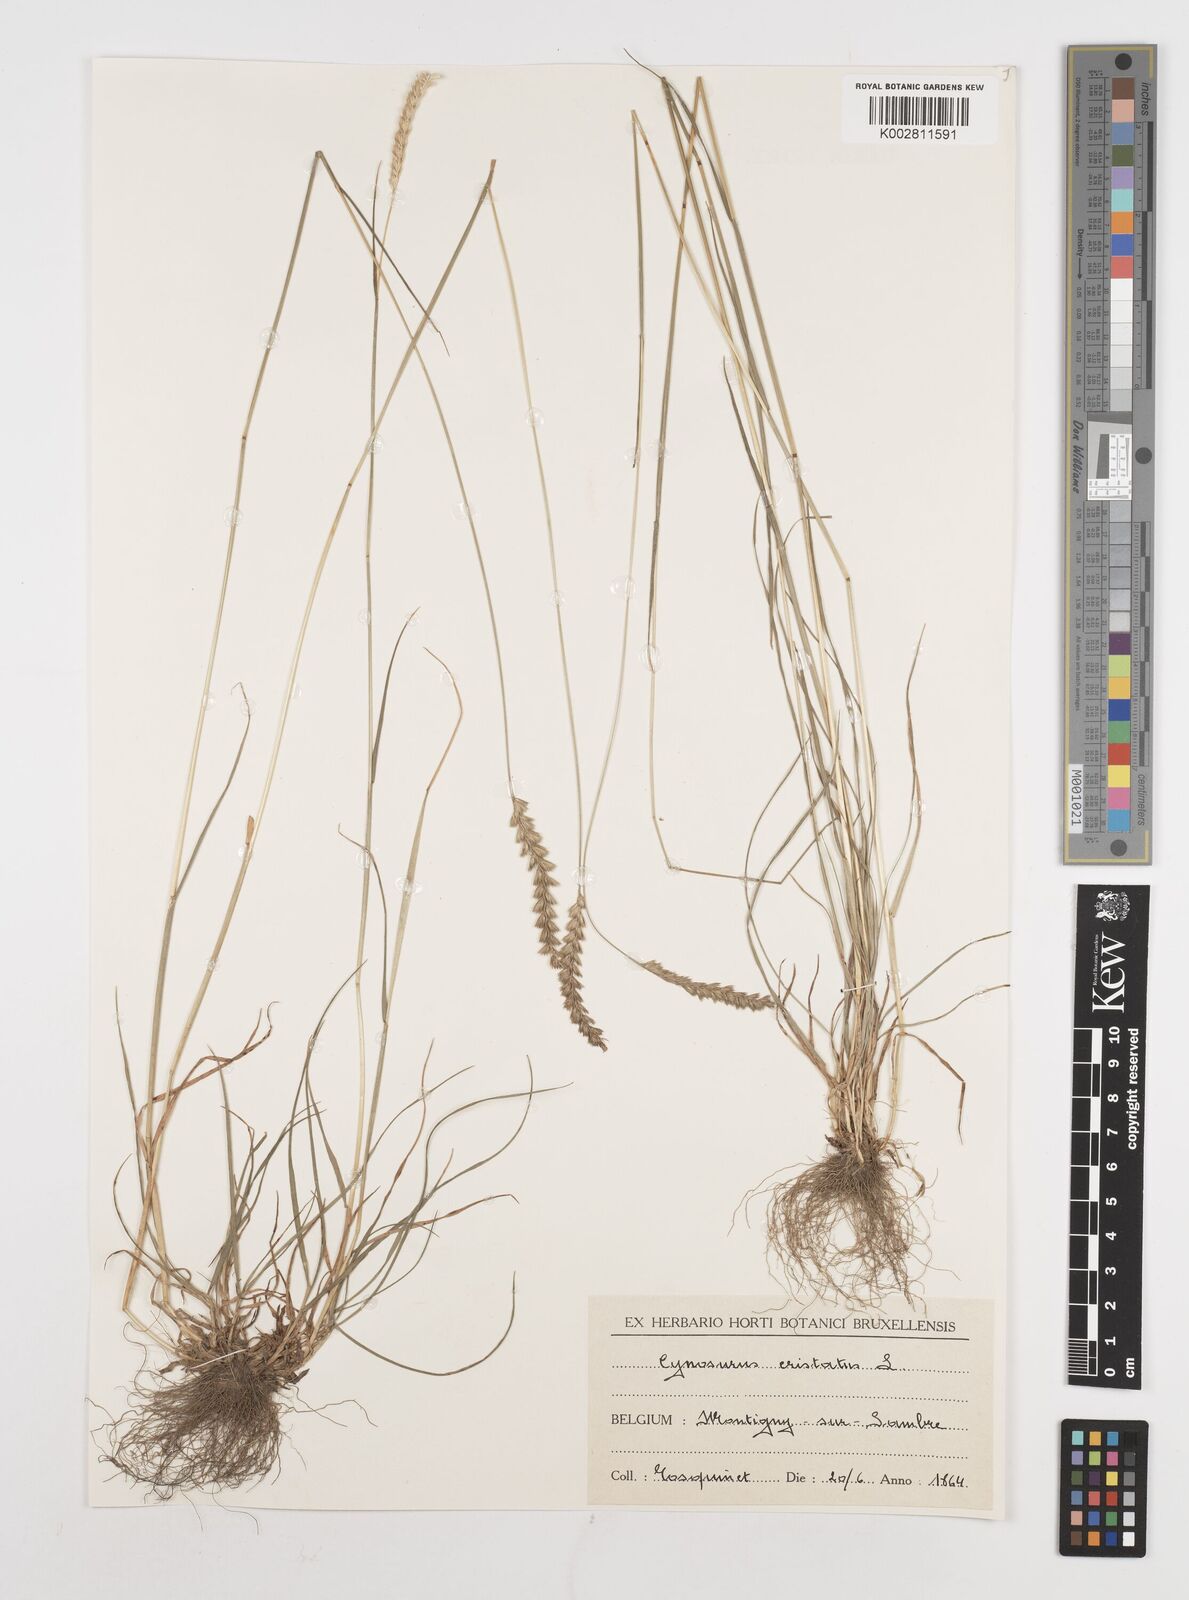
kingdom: Plantae
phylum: Tracheophyta
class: Liliopsida
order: Poales
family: Poaceae
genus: Cynosurus
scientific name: Cynosurus cristatus
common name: Crested dog's-tail
